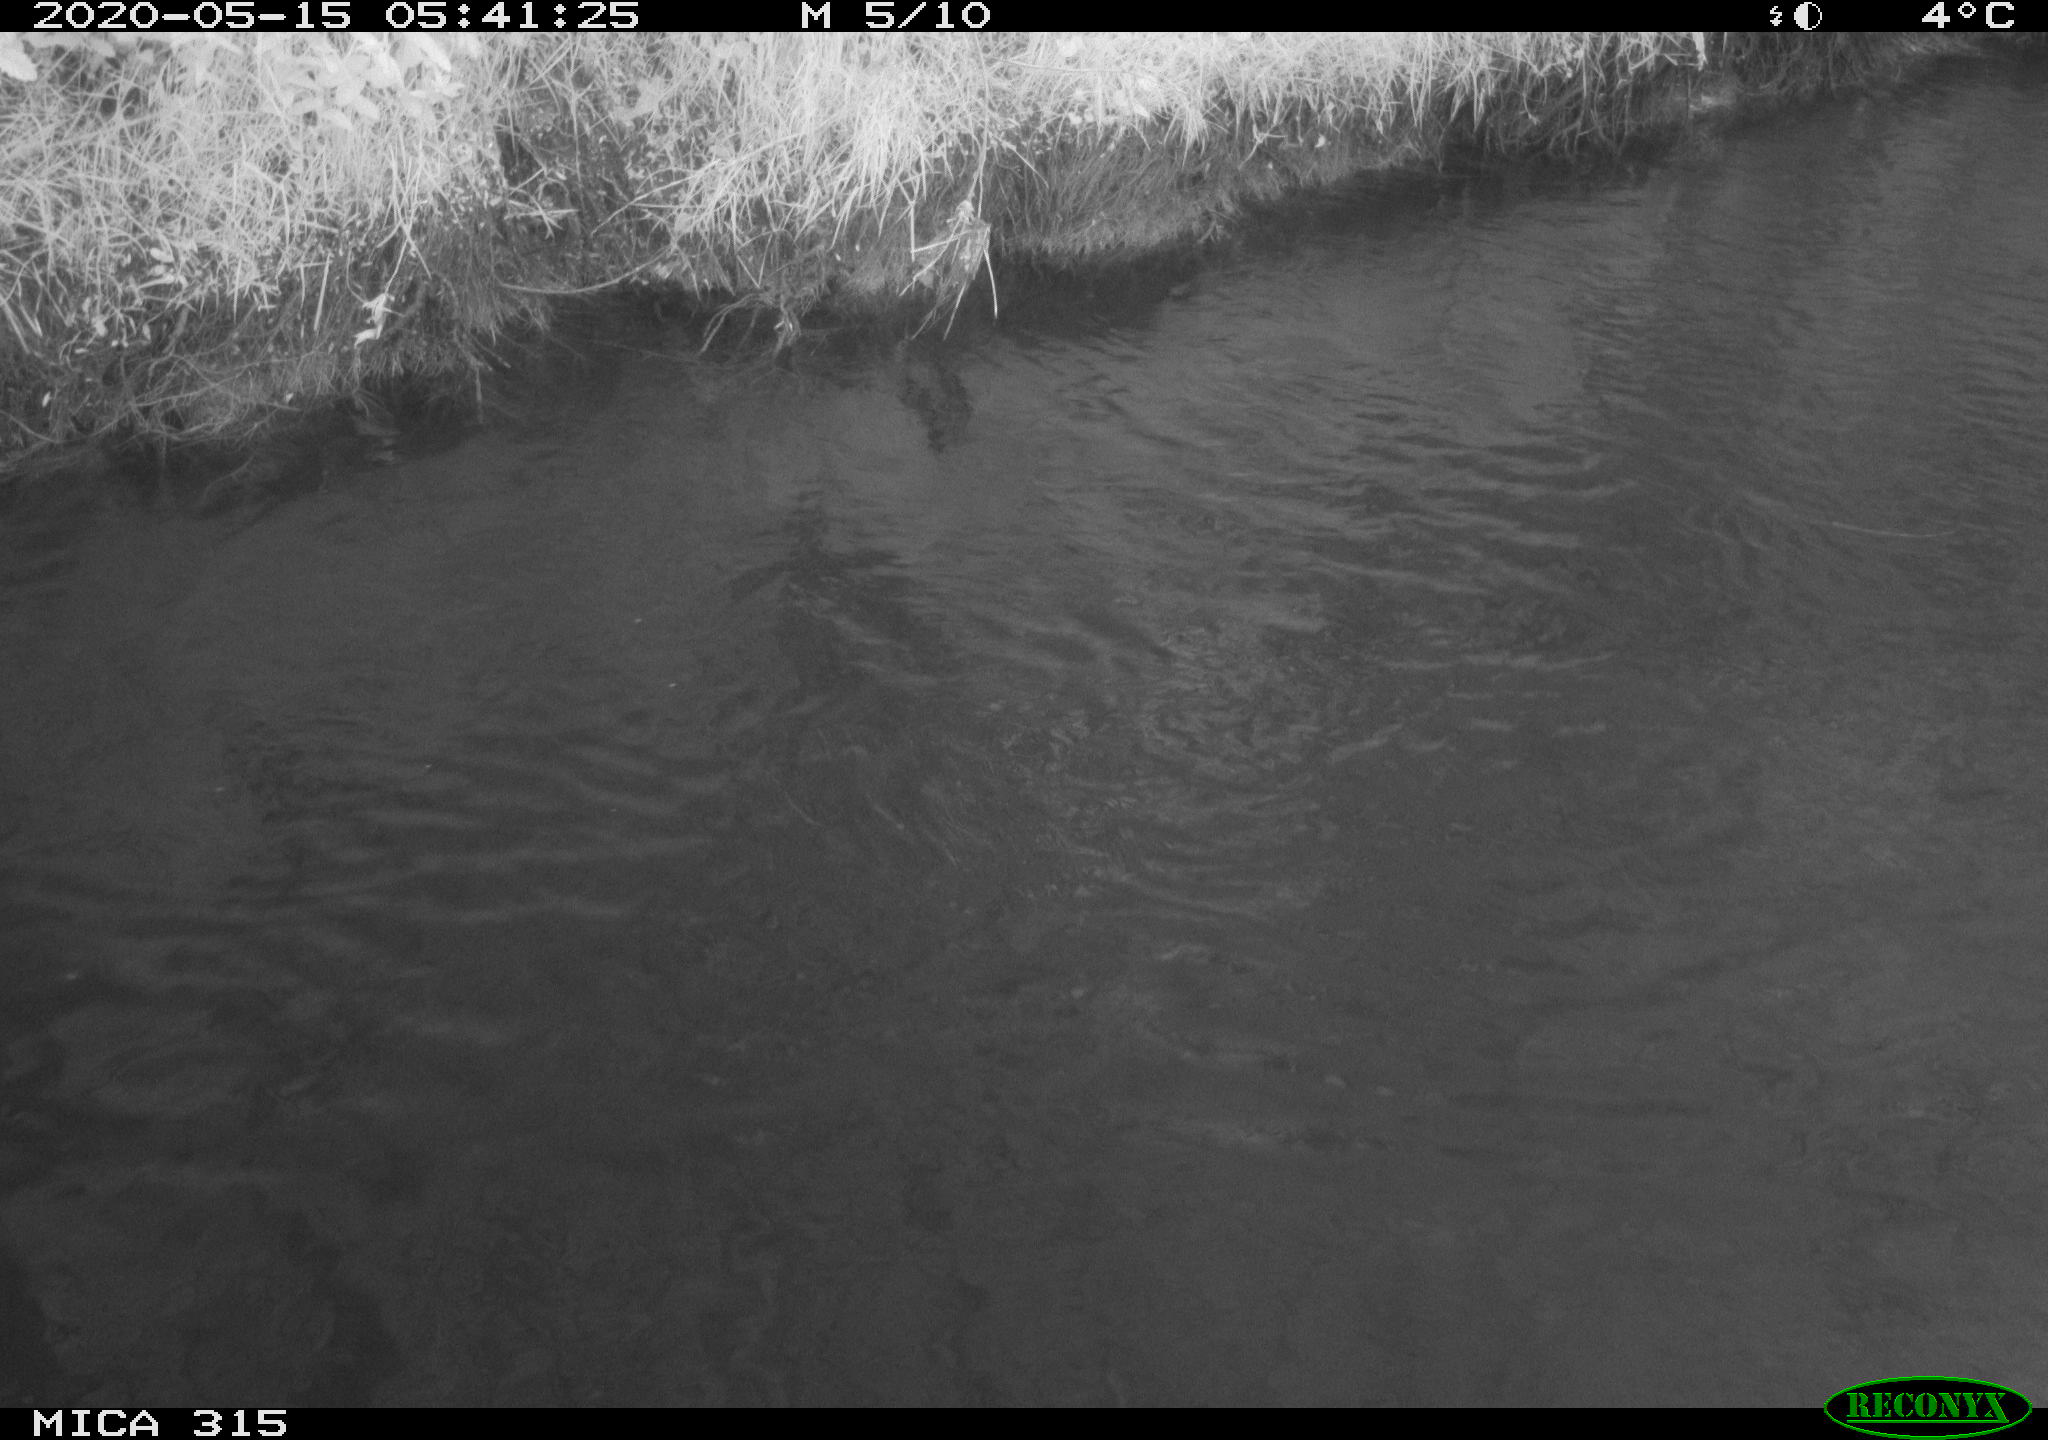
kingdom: Animalia
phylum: Chordata
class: Aves
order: Anseriformes
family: Anatidae
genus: Anas
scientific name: Anas platyrhynchos
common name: Mallard
